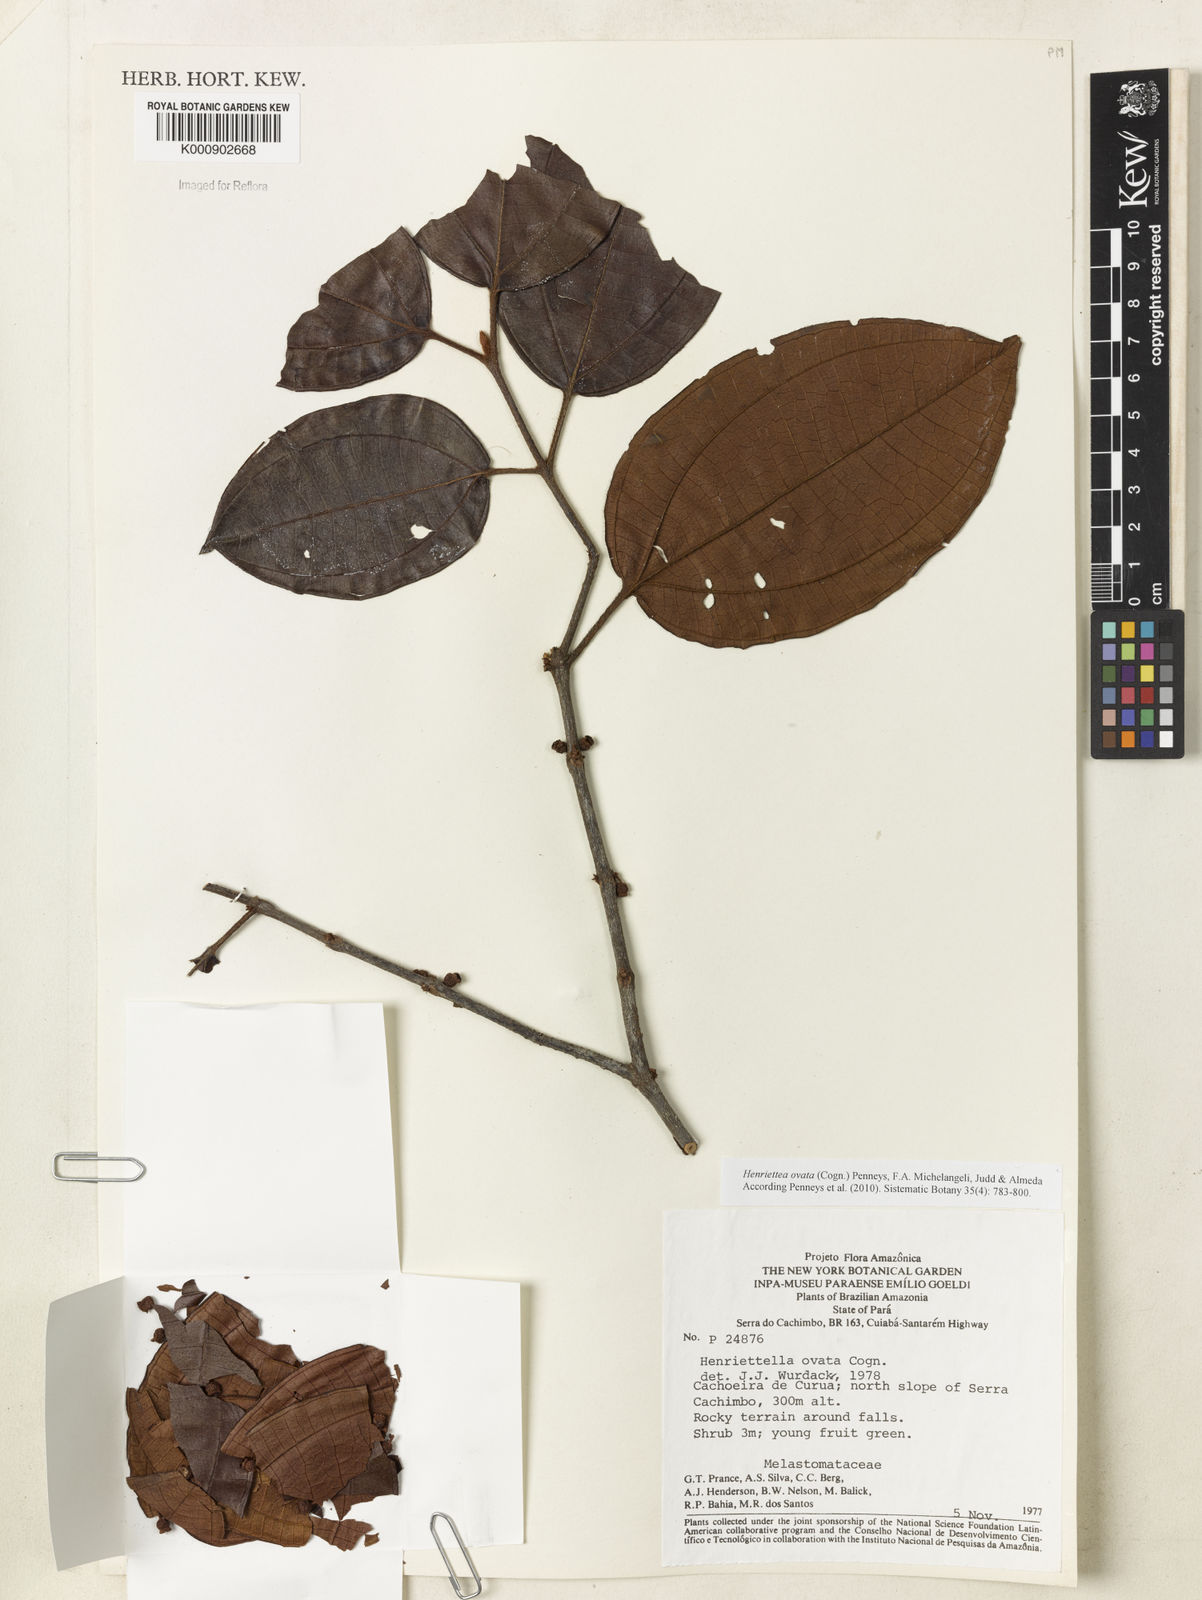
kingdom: Plantae
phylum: Tracheophyta
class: Magnoliopsida
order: Myrtales
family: Melastomataceae
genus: Henriettea
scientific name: Henriettea ovata
